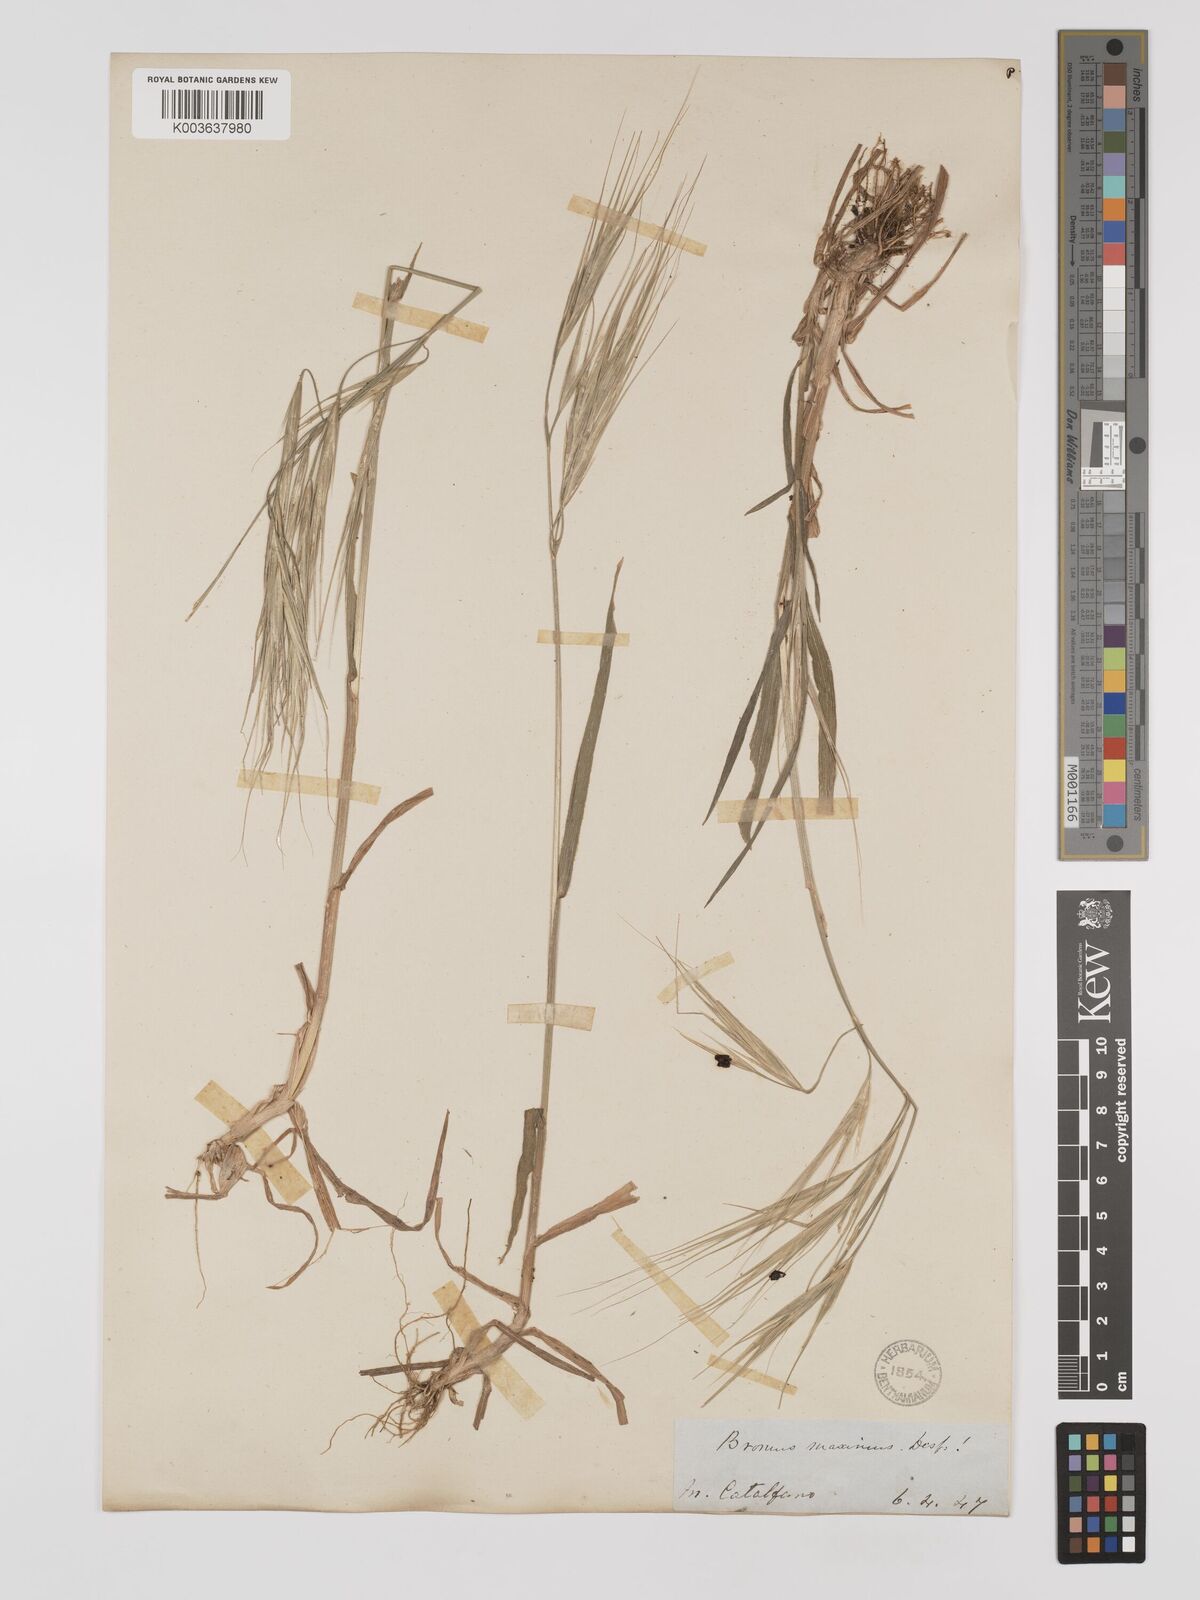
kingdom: Plantae
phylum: Tracheophyta
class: Liliopsida
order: Poales
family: Poaceae
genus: Bromus
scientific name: Bromus
